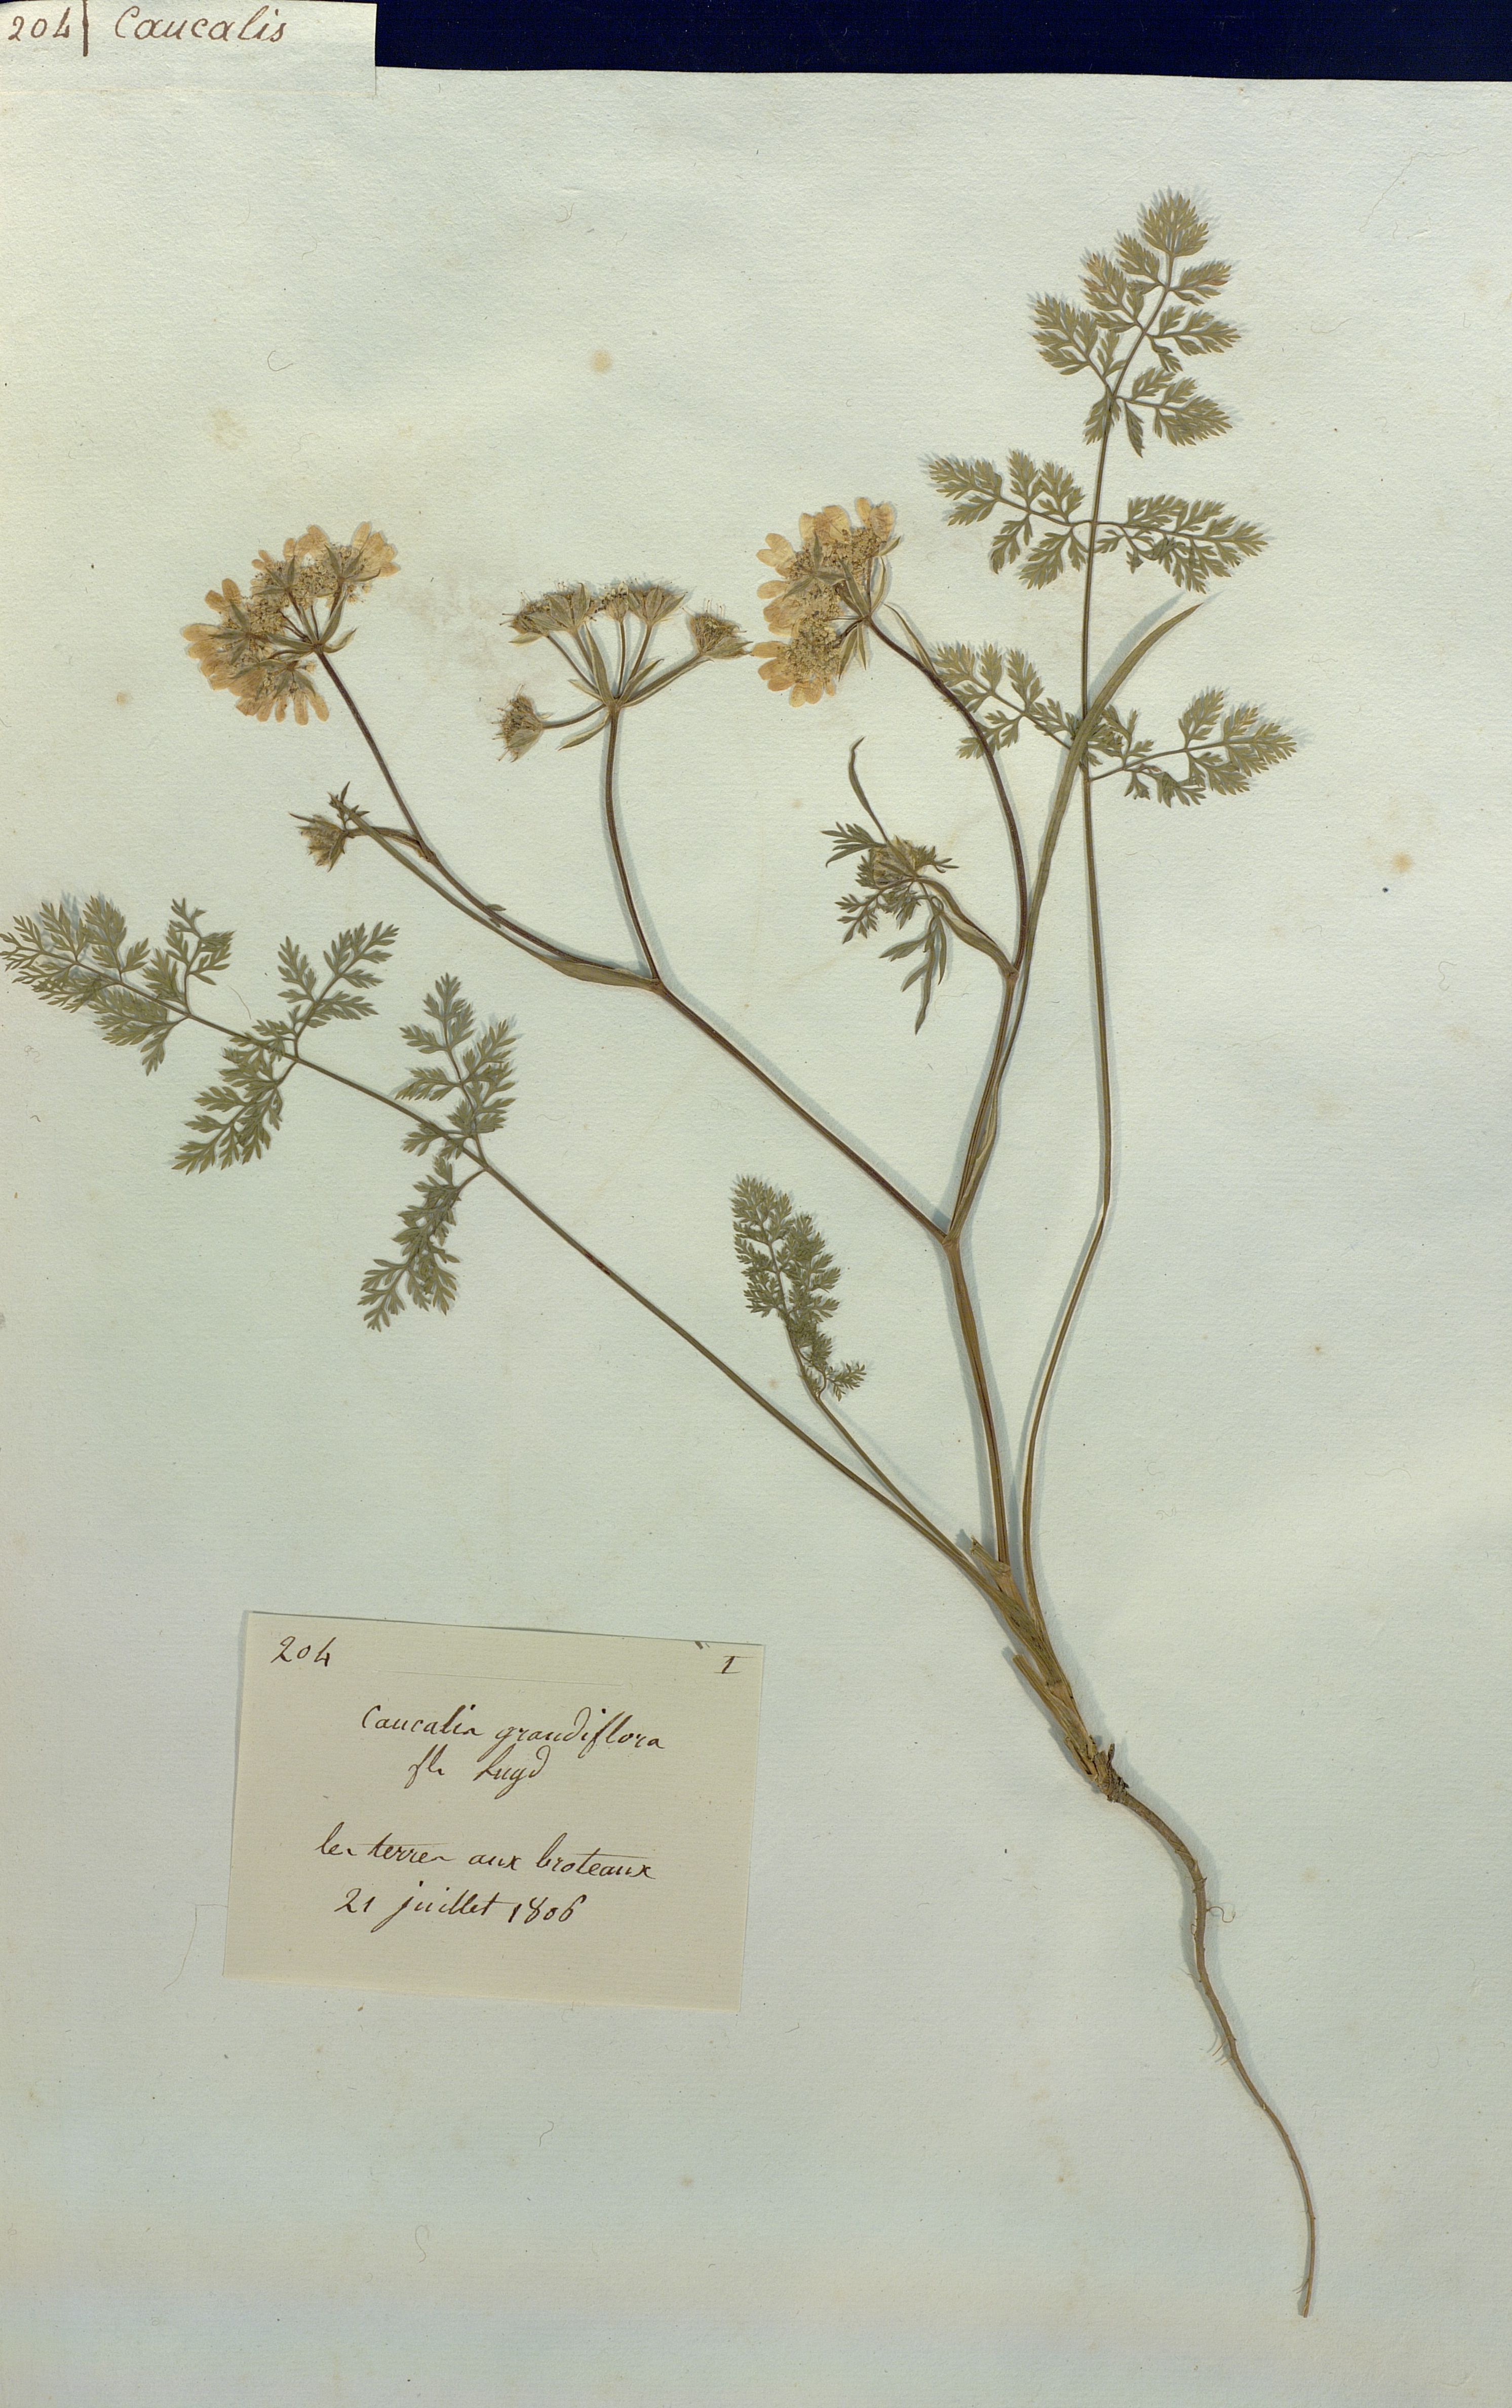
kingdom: Plantae
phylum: Tracheophyta
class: Magnoliopsida
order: Apiales
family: Apiaceae
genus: Caucalis
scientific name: Caucalis grandiflora
